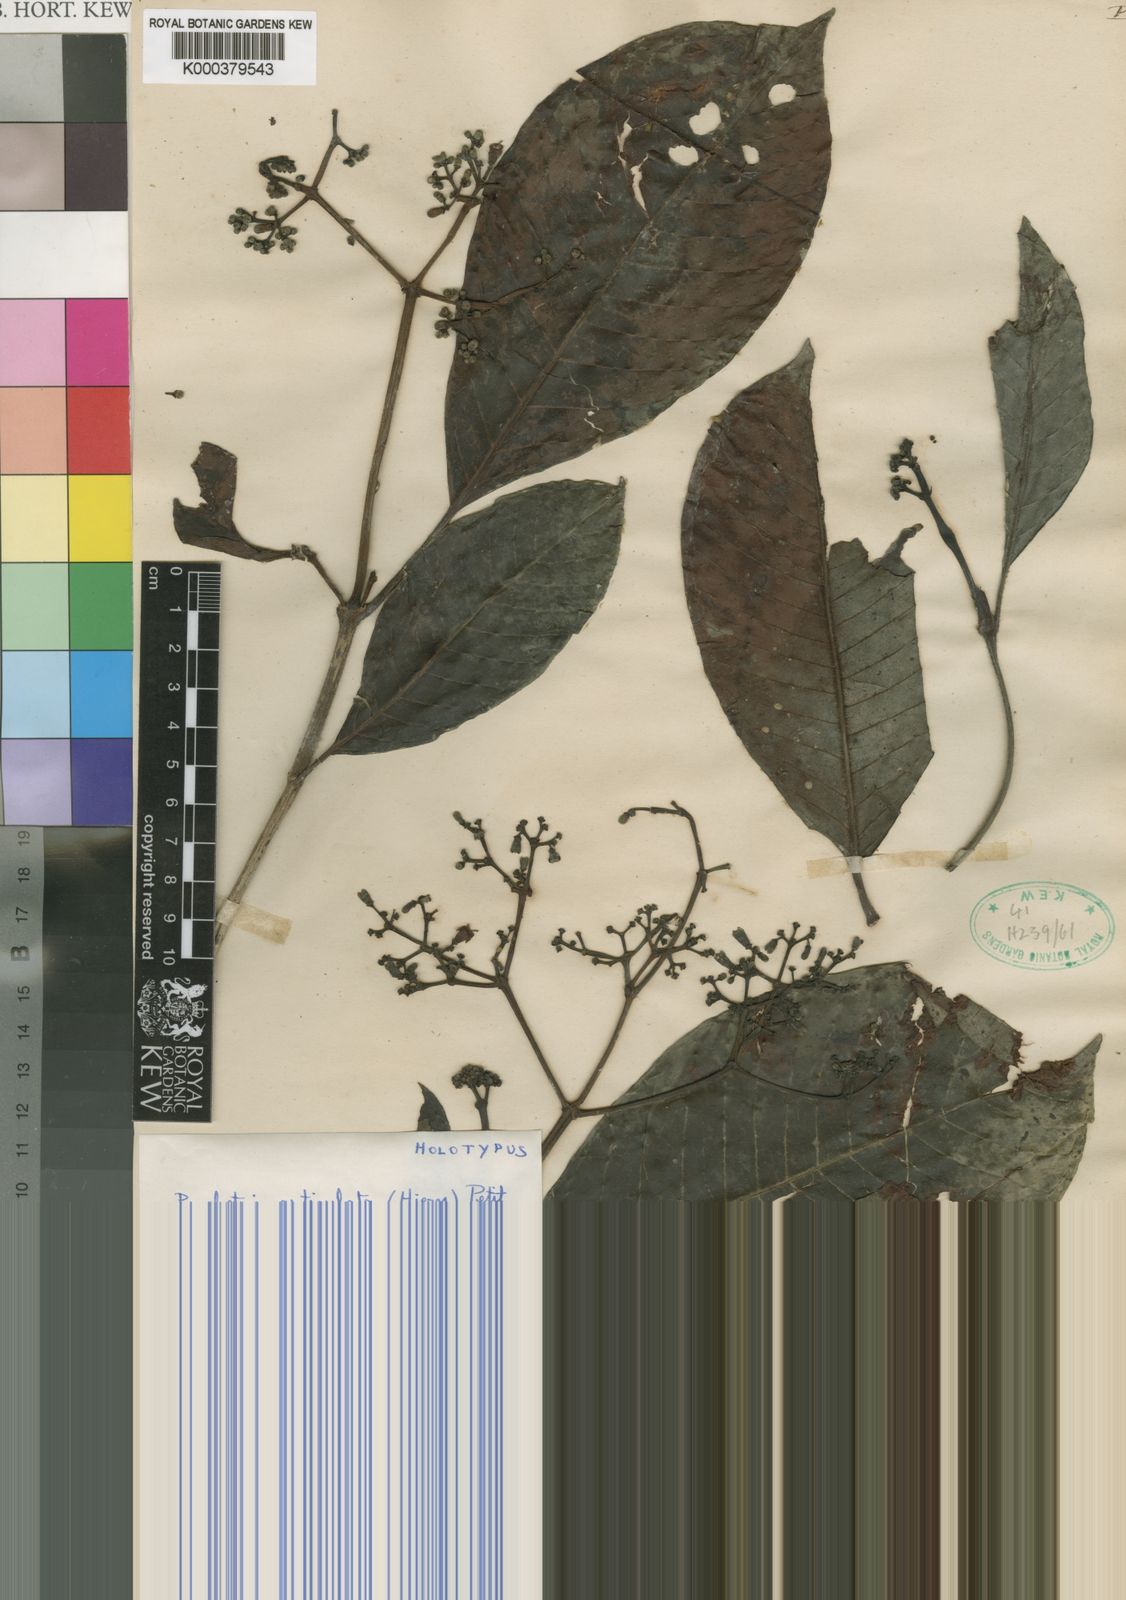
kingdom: Plantae
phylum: Tracheophyta
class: Magnoliopsida
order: Gentianales
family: Rubiaceae
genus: Psychotria
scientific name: Psychotria articulata
